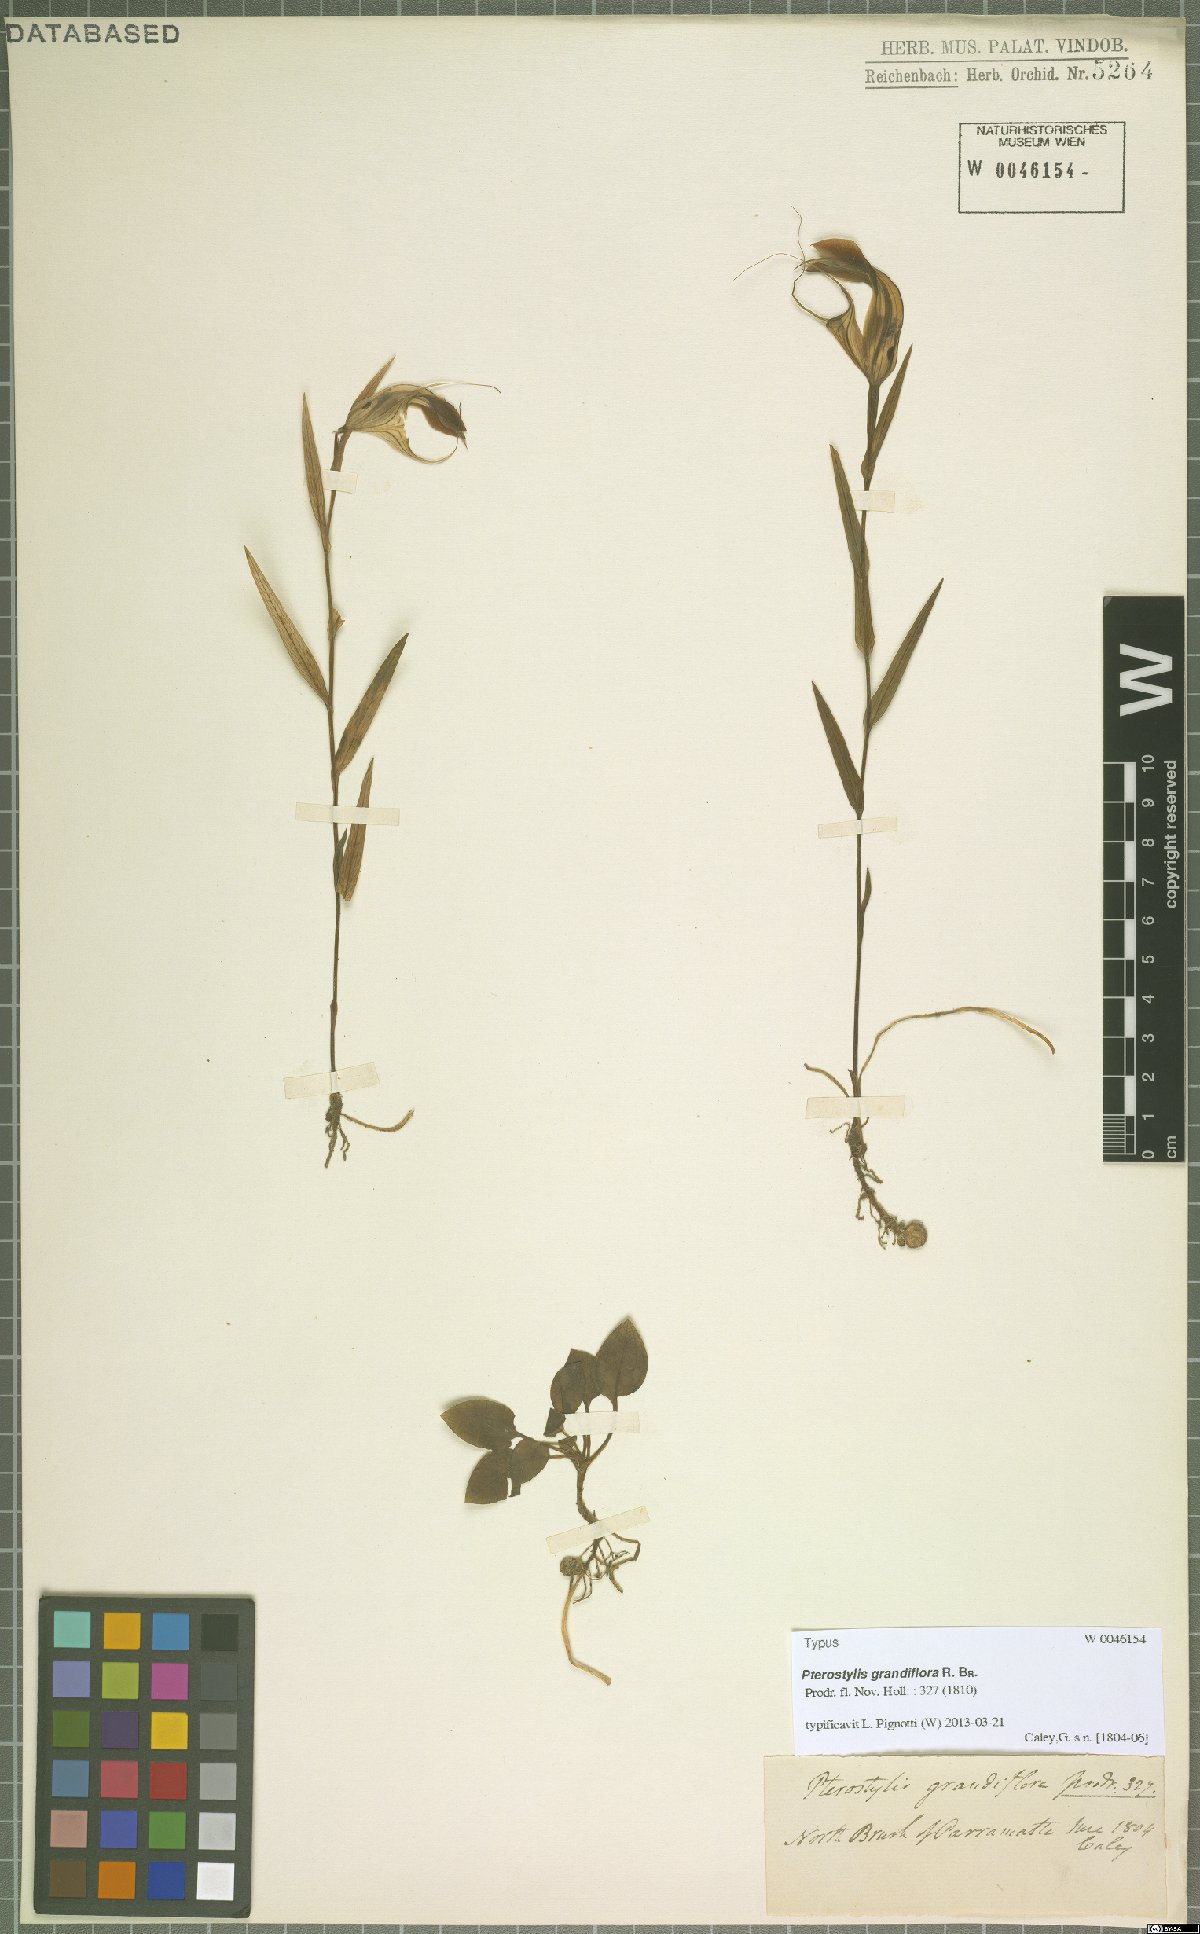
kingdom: Plantae
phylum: Tracheophyta
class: Liliopsida
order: Asparagales
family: Orchidaceae
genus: Pterostylis
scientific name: Pterostylis grandiflora
